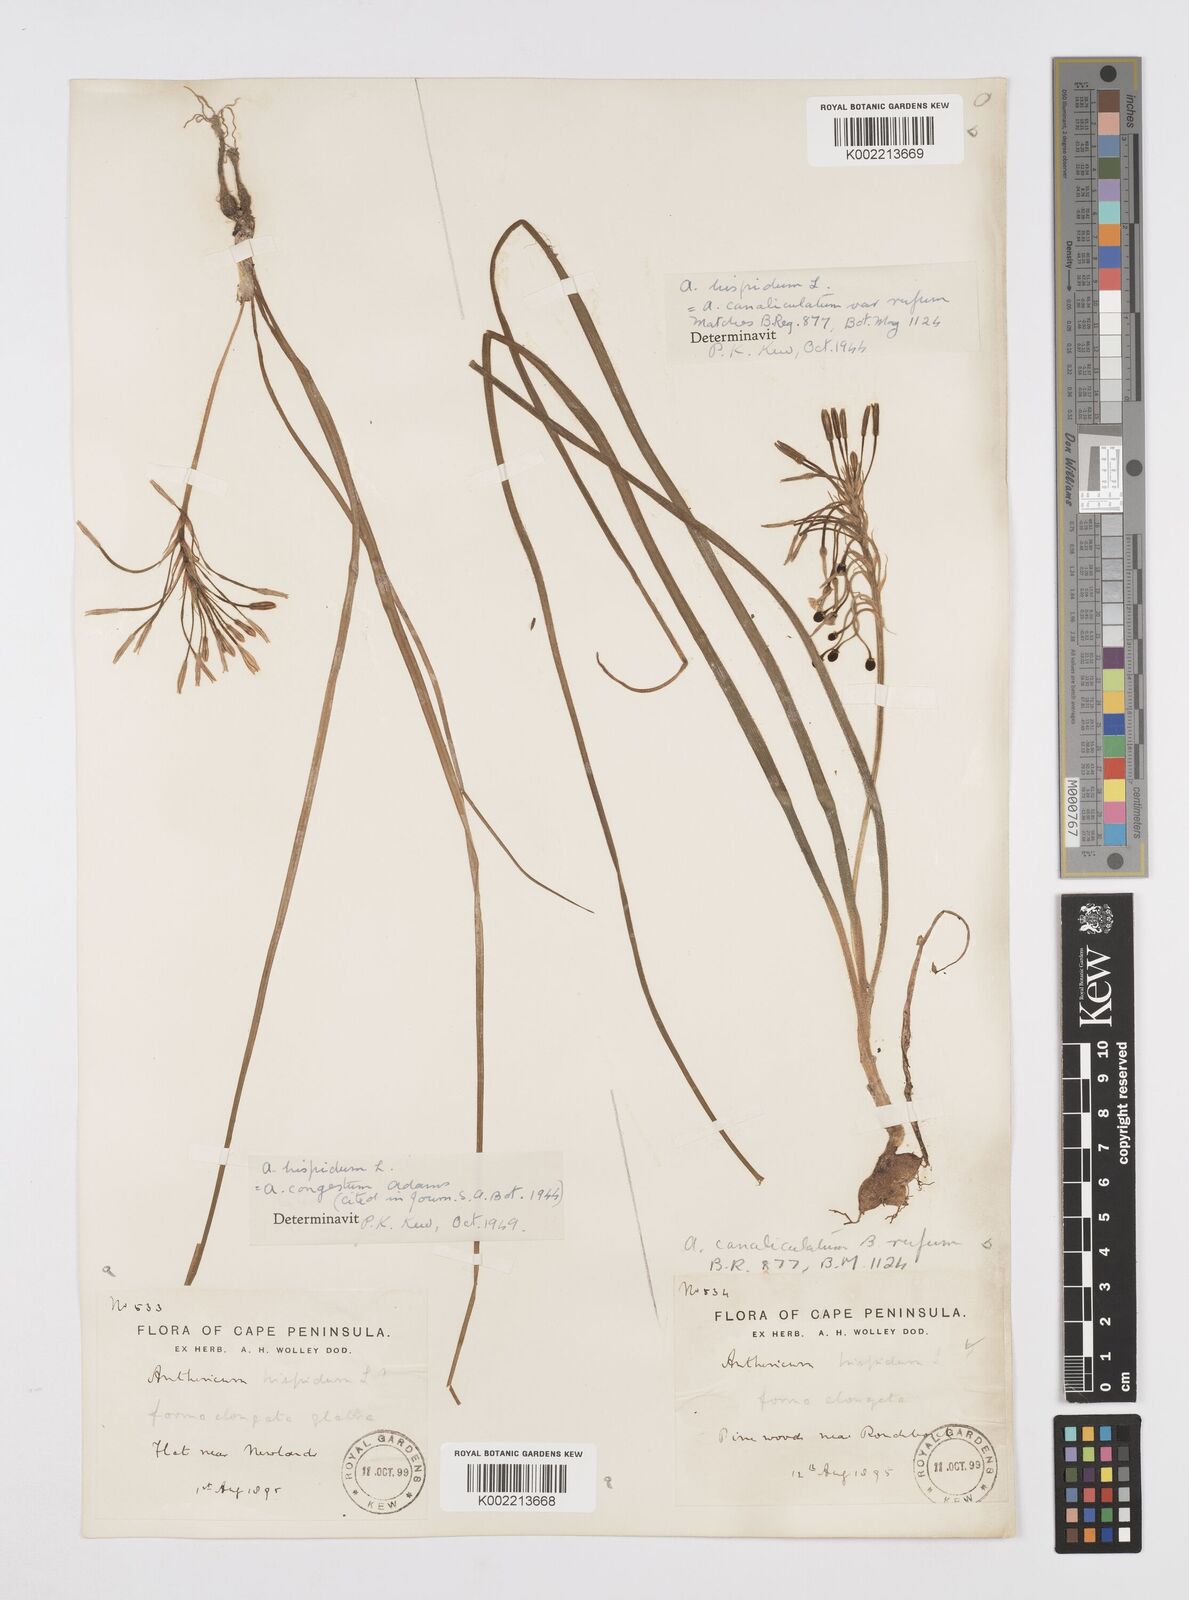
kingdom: Plantae
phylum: Tracheophyta
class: Liliopsida
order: Asparagales
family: Asphodelaceae
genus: Trachyandra
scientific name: Trachyandra hispida
